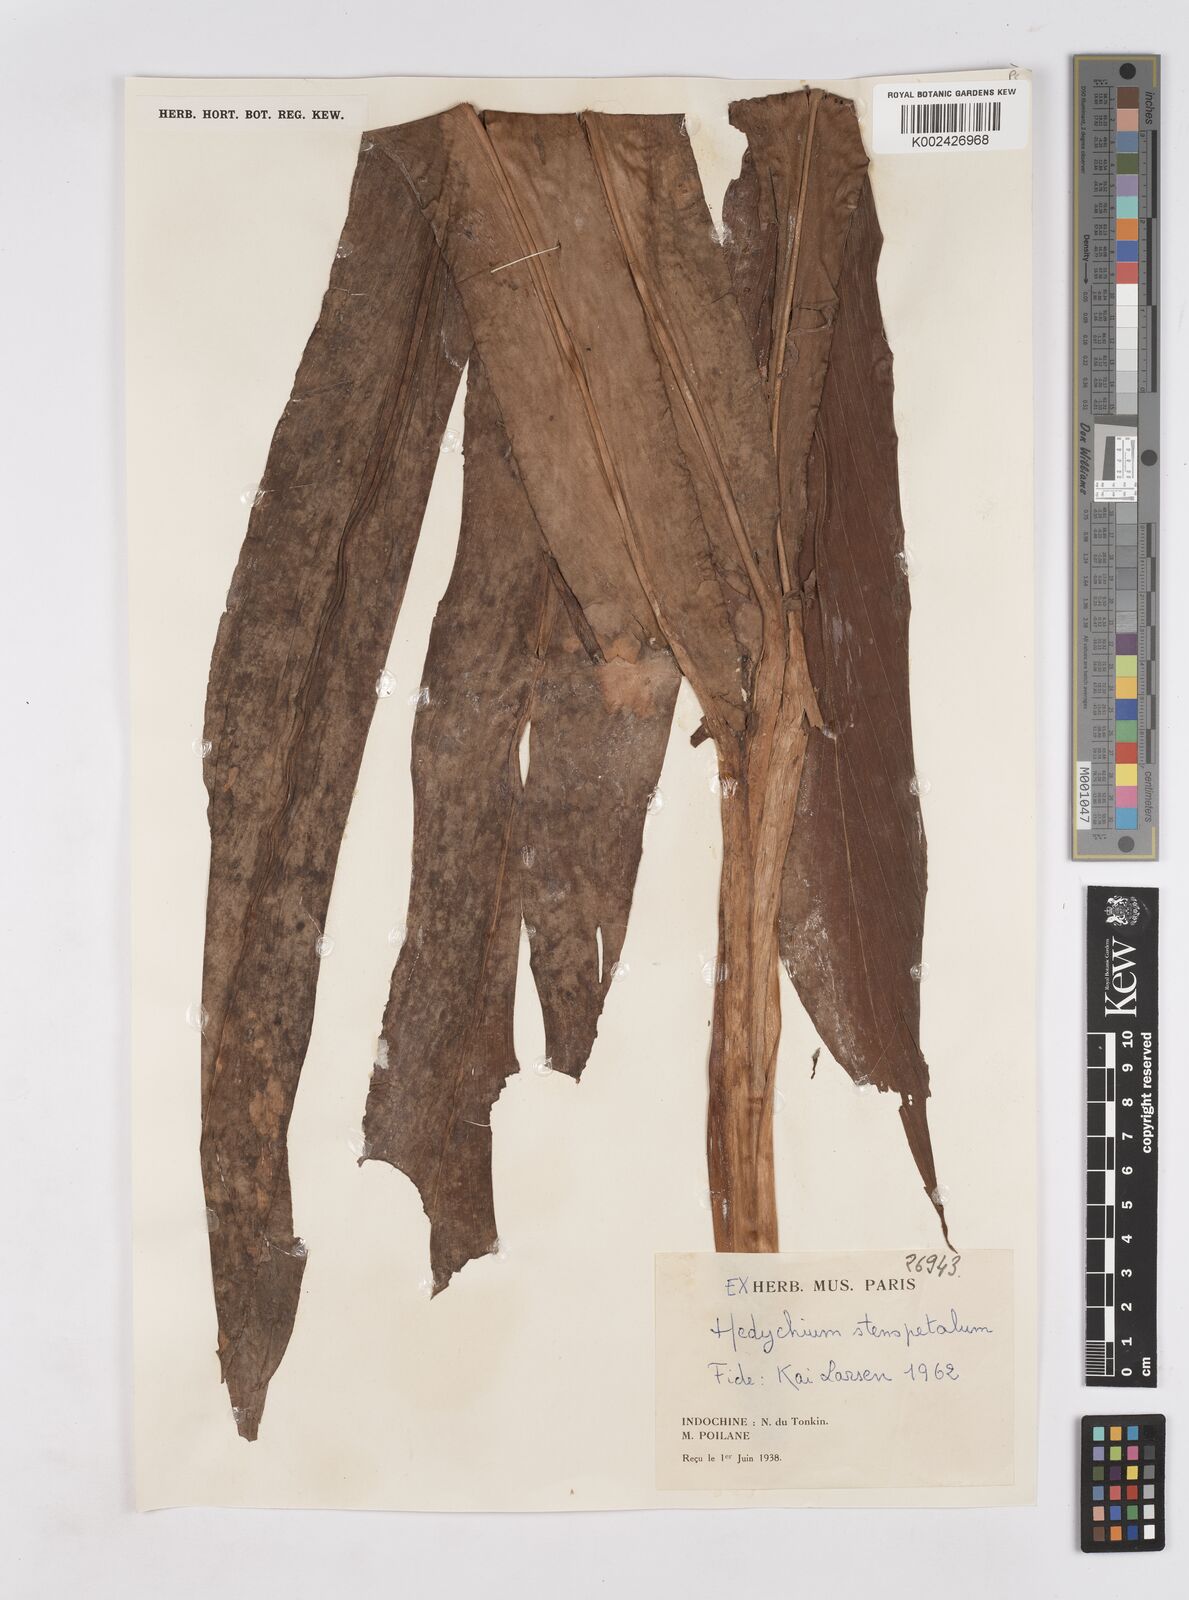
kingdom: Plantae
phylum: Tracheophyta
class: Liliopsida
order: Zingiberales
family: Zingiberaceae
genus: Hedychium
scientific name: Hedychium stenopetalum
